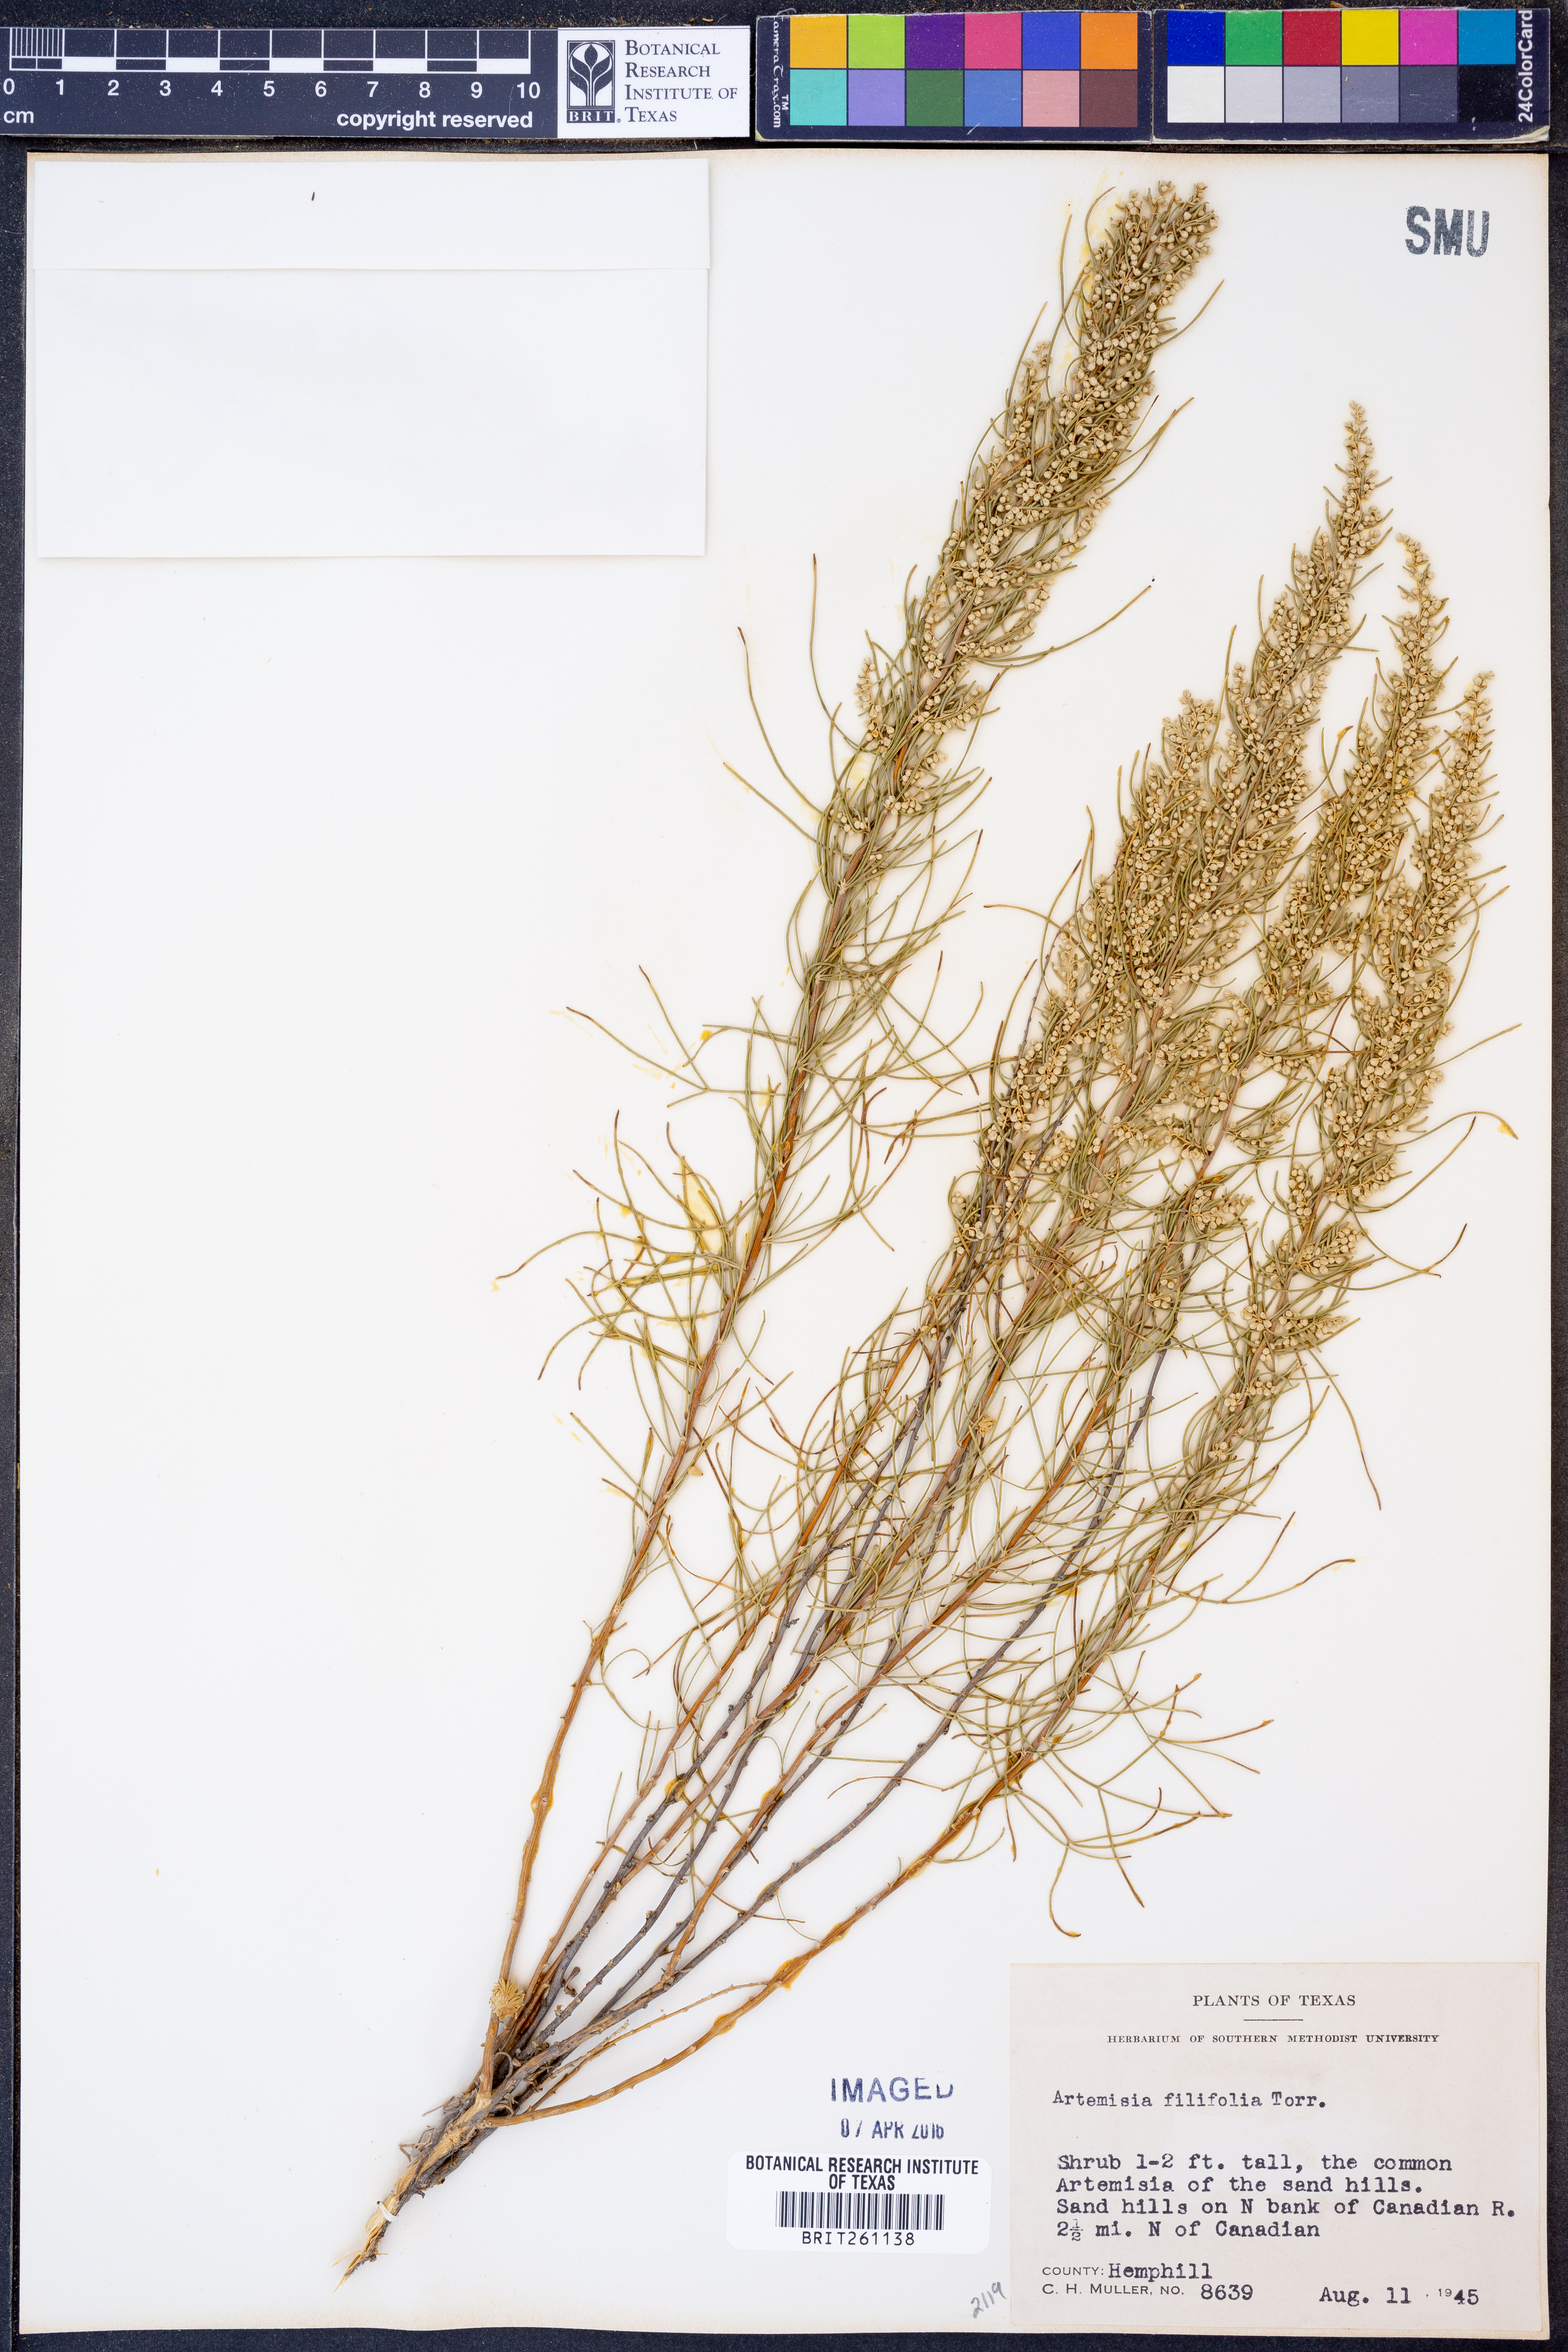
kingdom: Plantae
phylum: Tracheophyta
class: Magnoliopsida
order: Asterales
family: Asteraceae
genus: Artemisia
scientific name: Artemisia filifolia
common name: Sand-sage
